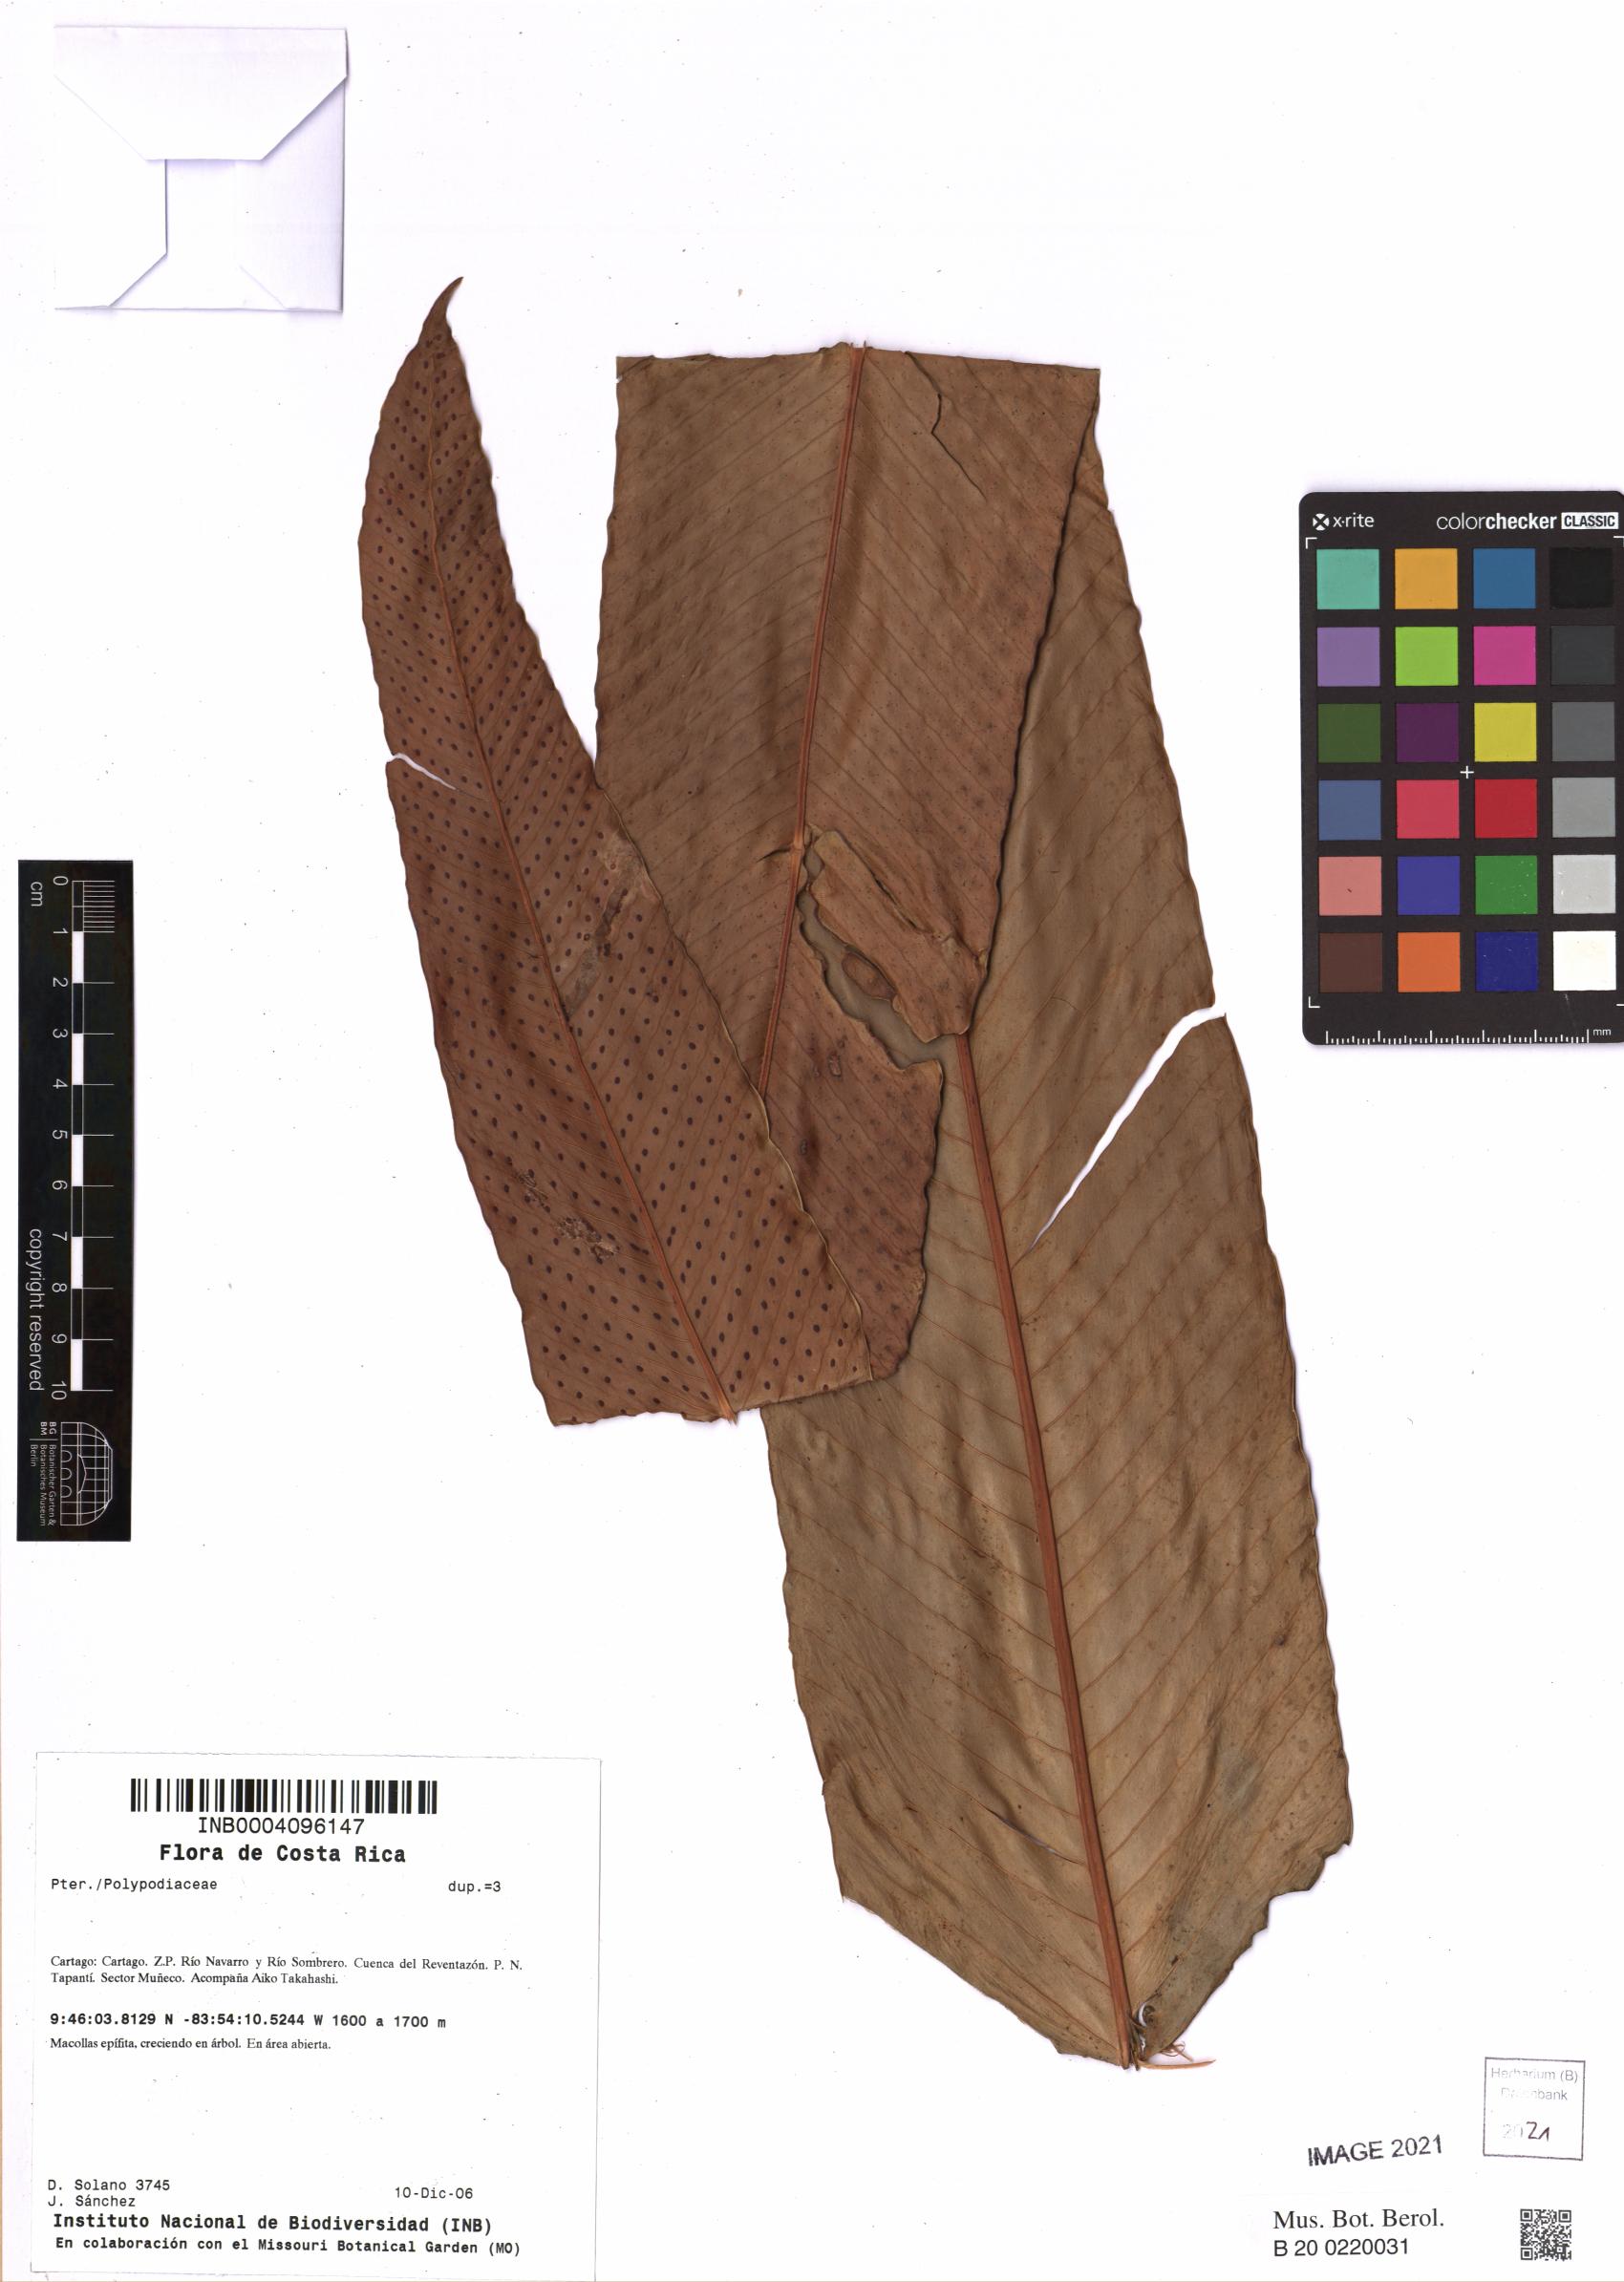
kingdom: Plantae
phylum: Tracheophyta
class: Polypodiopsida
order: Polypodiales
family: Polypodiaceae
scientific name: Polypodiaceae
